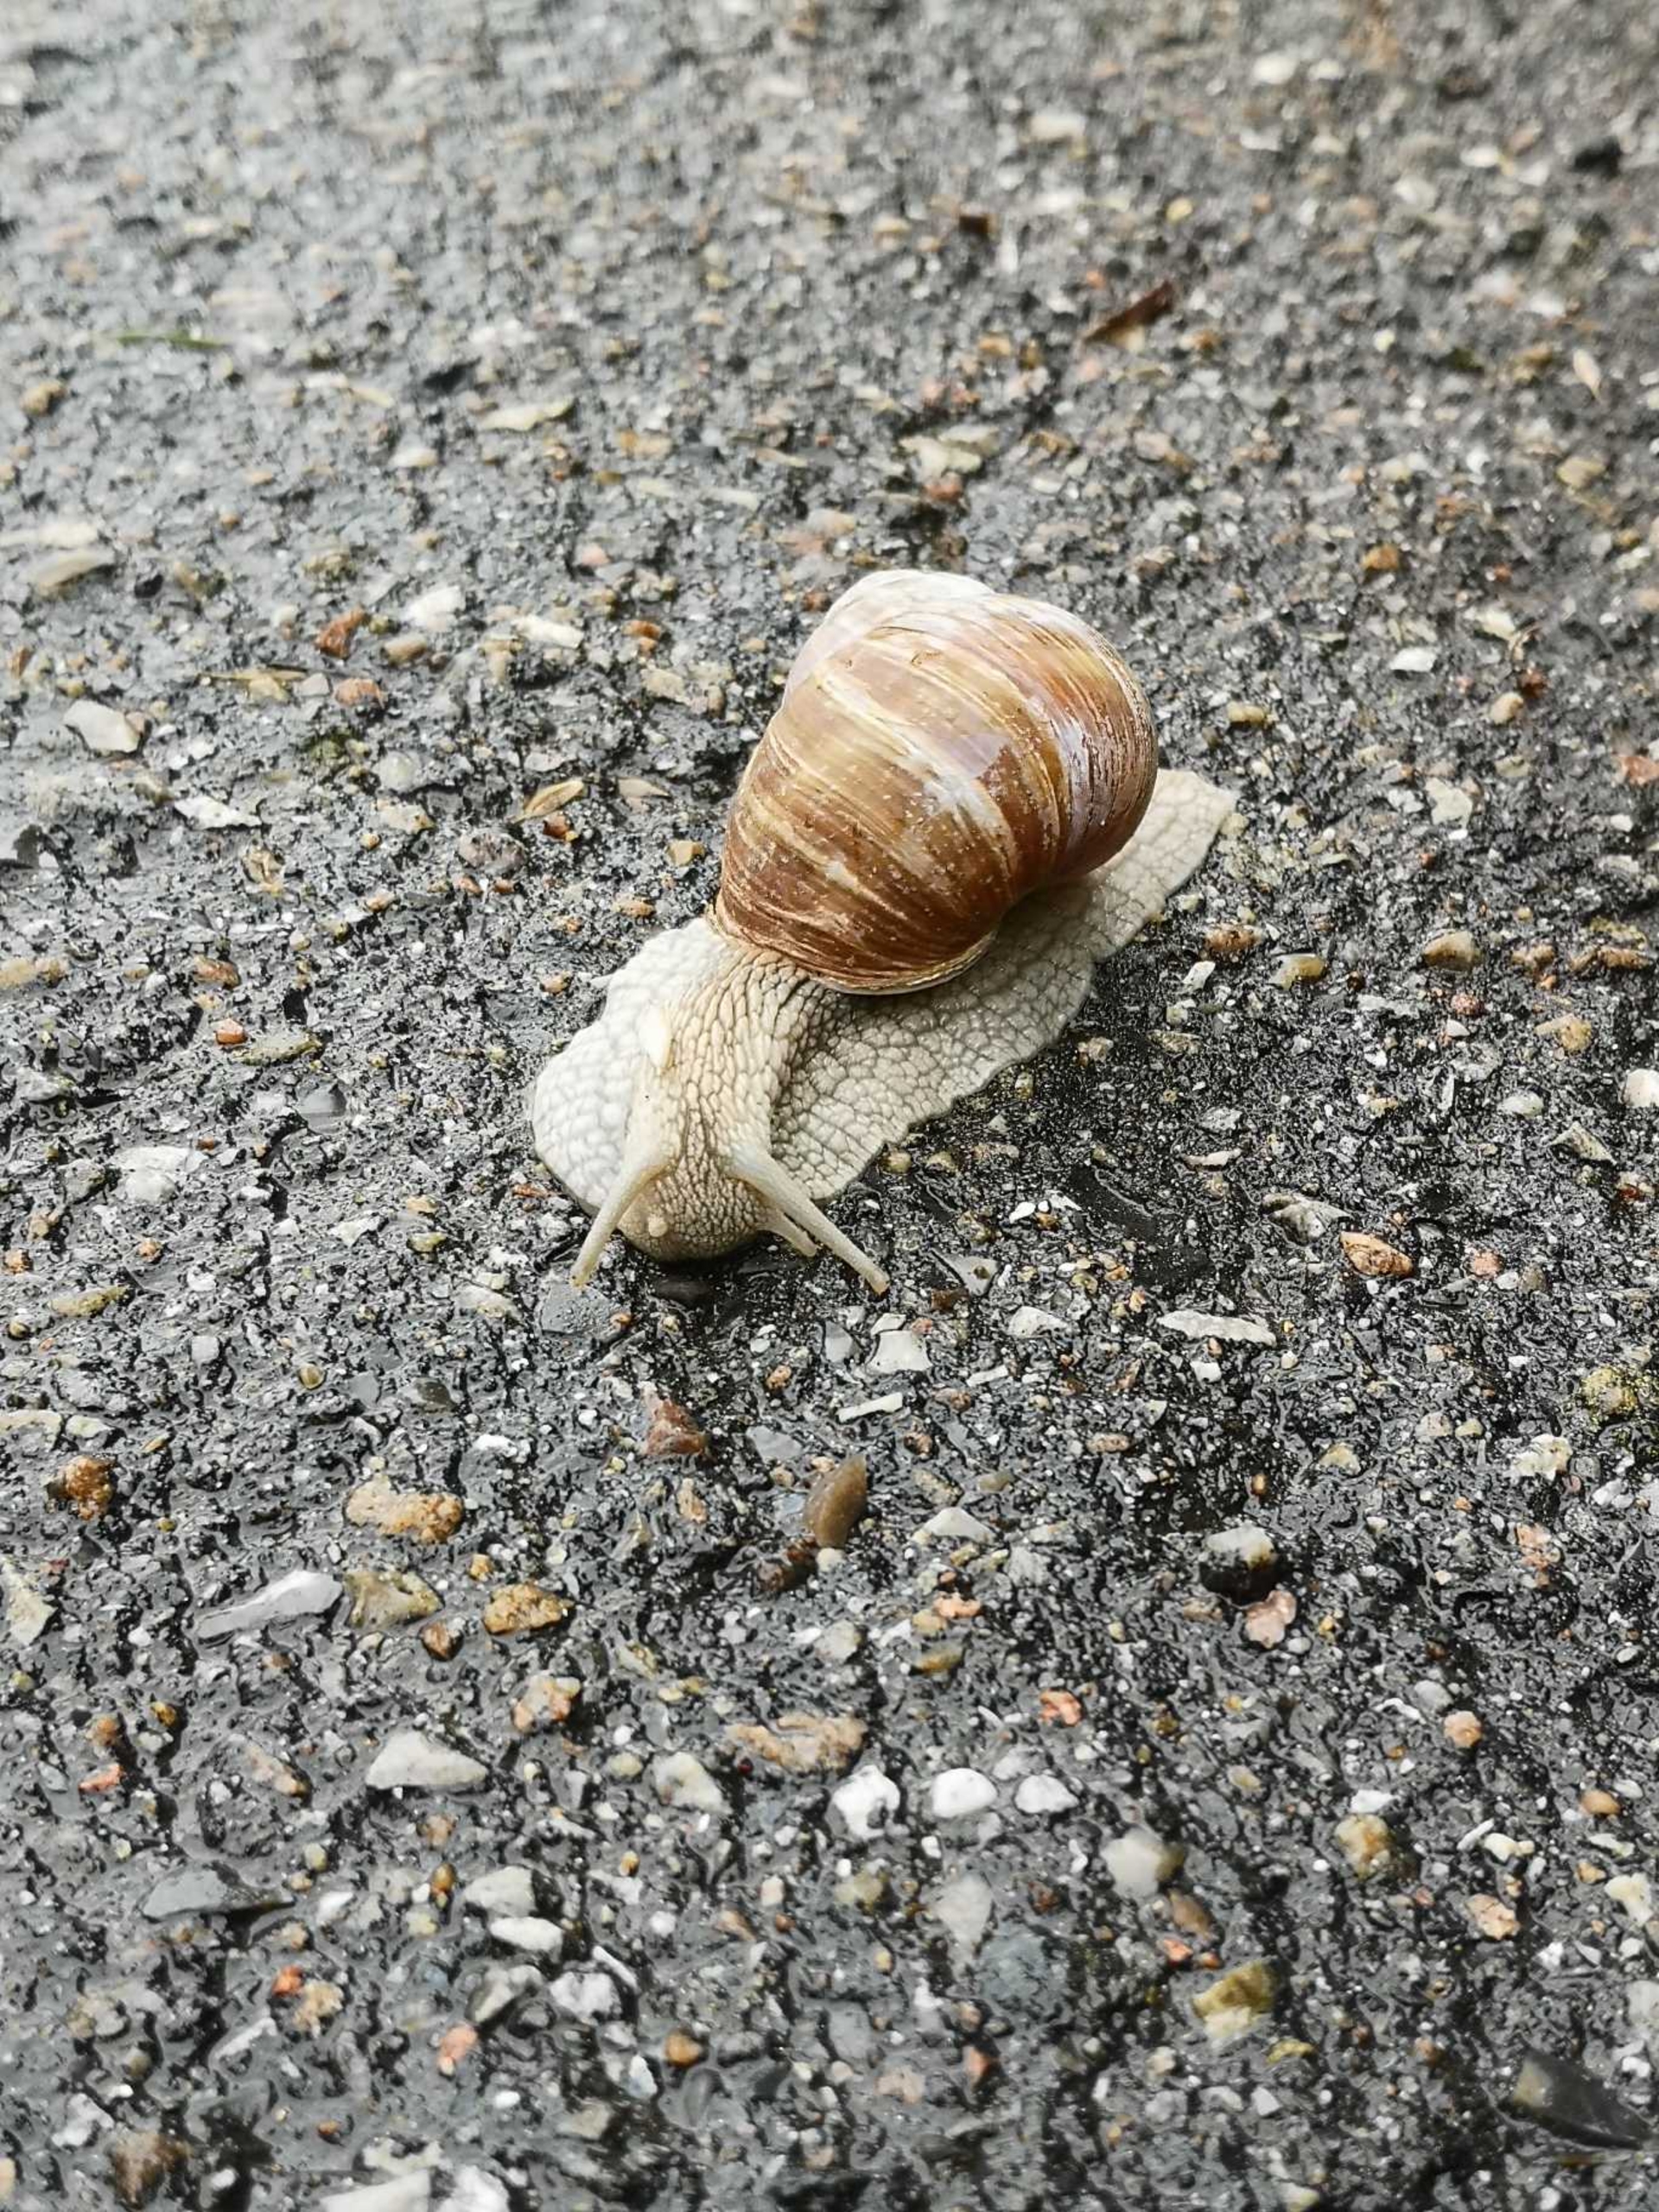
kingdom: Animalia
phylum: Mollusca
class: Gastropoda
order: Stylommatophora
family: Helicidae
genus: Helix
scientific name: Helix pomatia
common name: Vinbjergsnegl
